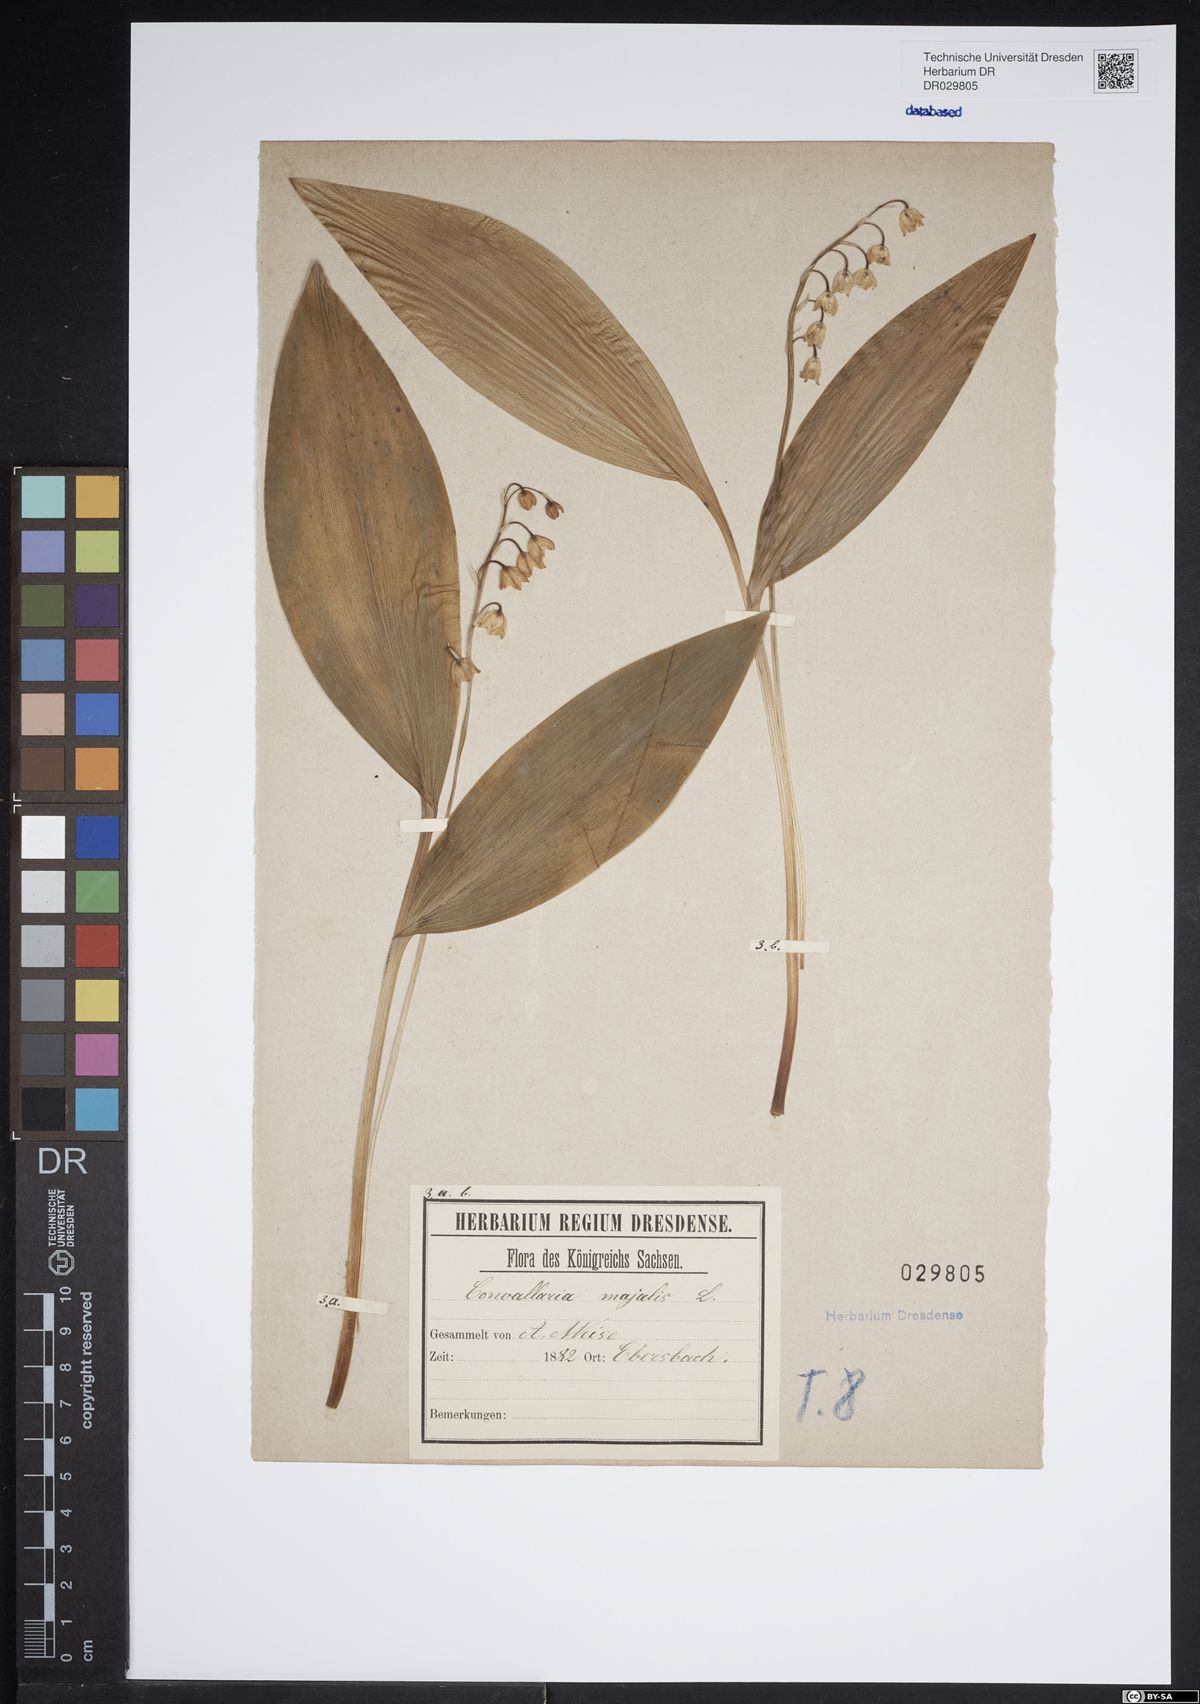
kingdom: Plantae
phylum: Tracheophyta
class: Liliopsida
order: Asparagales
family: Asparagaceae
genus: Convallaria
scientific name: Convallaria majalis
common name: Lily-of-the-valley
